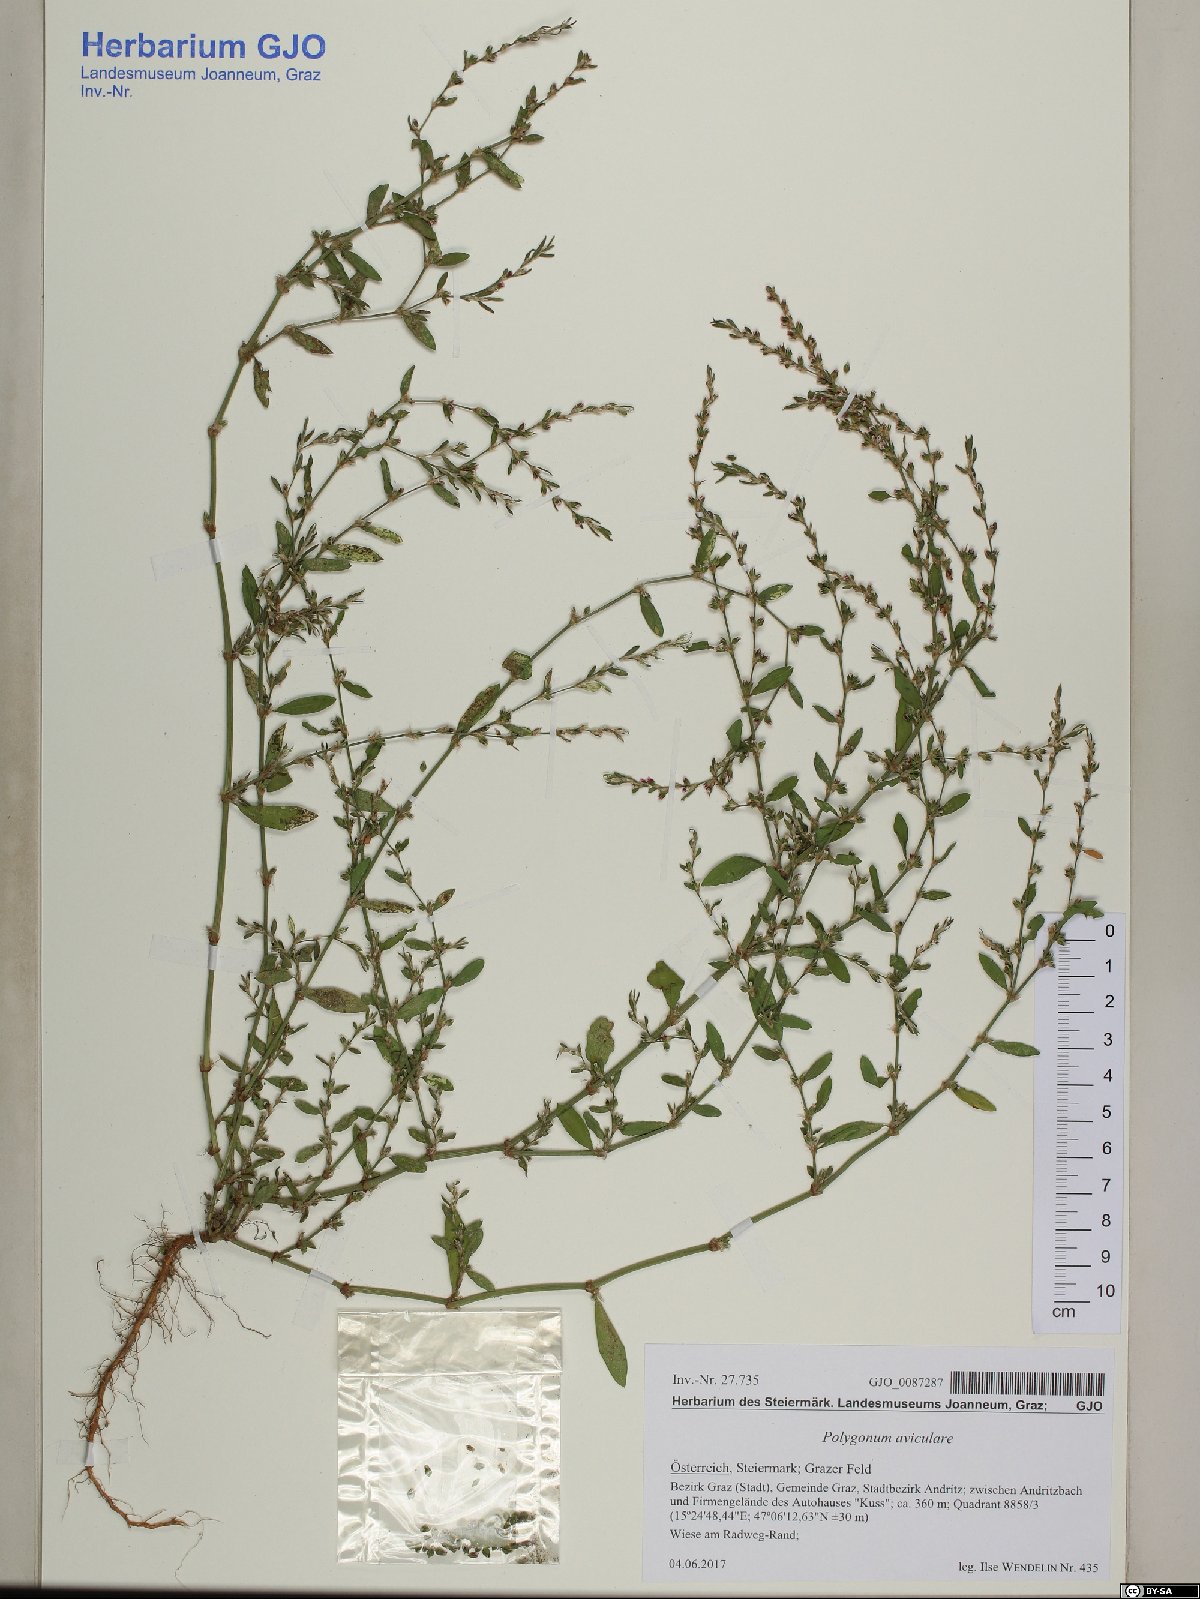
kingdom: Plantae
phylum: Tracheophyta
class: Magnoliopsida
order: Caryophyllales
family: Polygonaceae
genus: Polygonum
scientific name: Polygonum aviculare
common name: Prostrate knotweed
